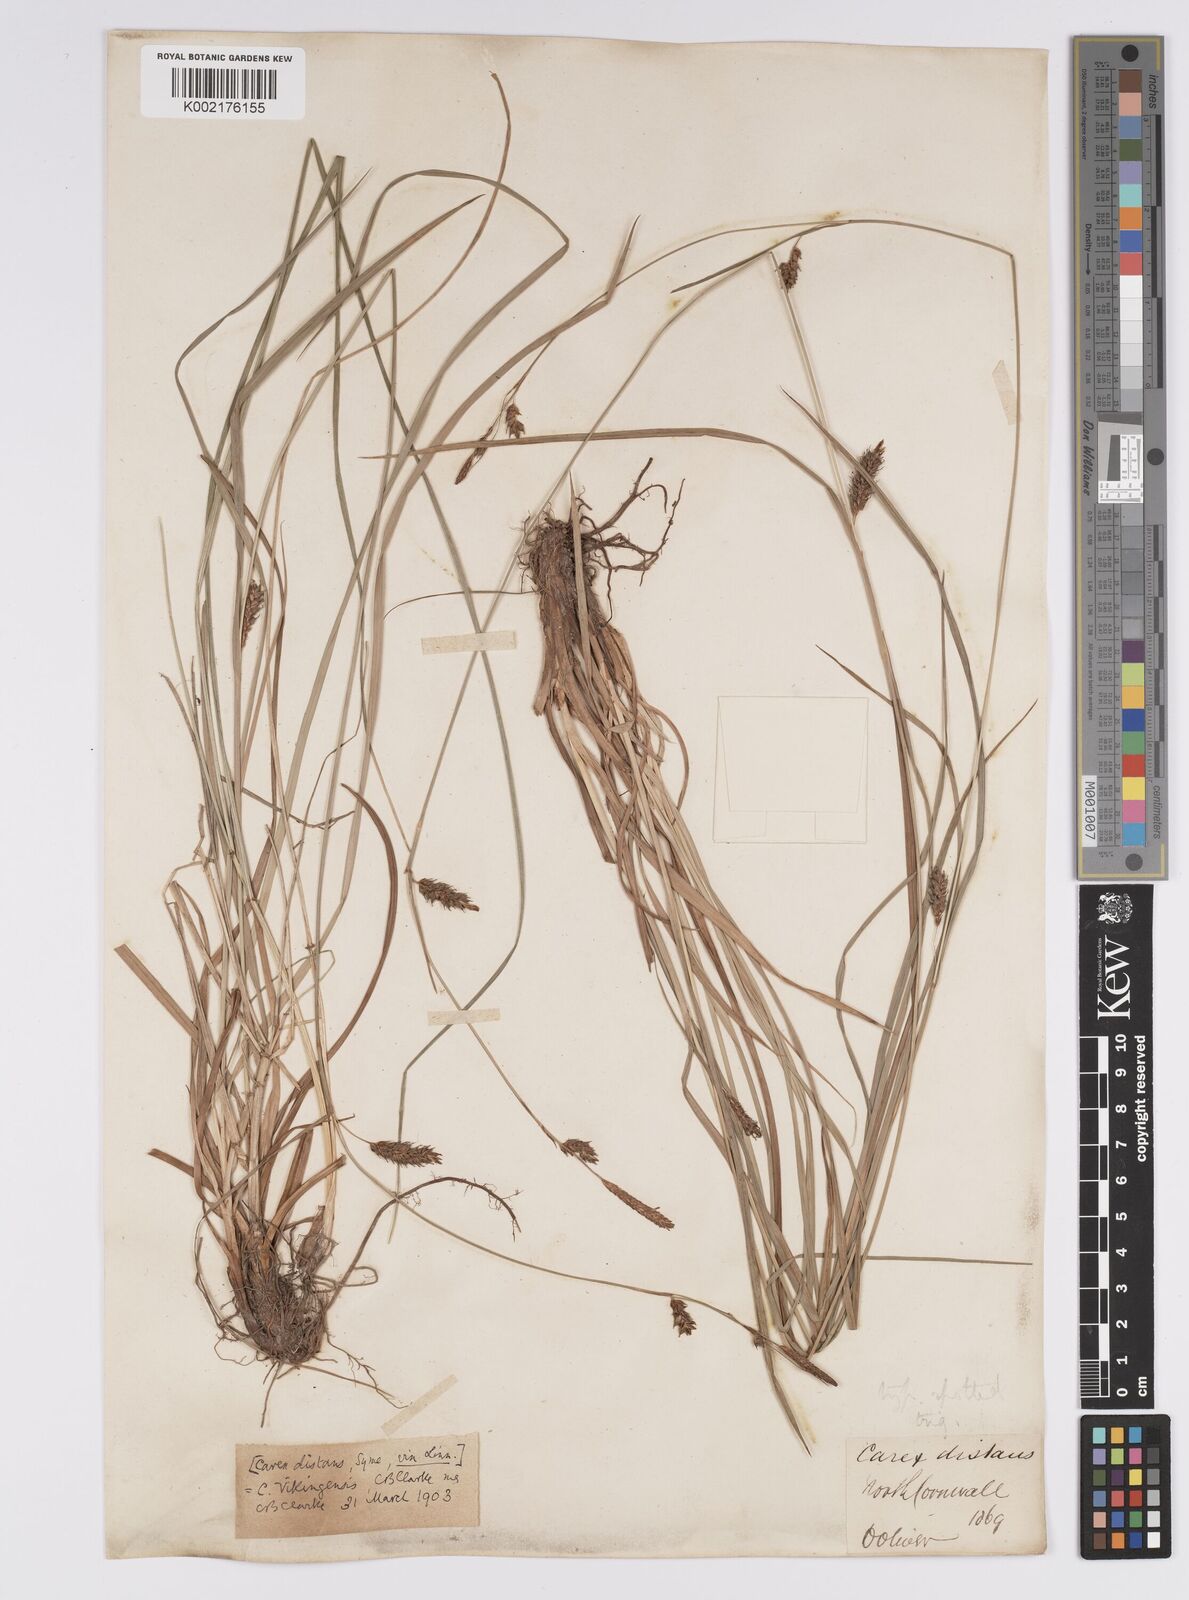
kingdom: Plantae
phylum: Tracheophyta
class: Liliopsida
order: Poales
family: Cyperaceae
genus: Carex
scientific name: Carex distans
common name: Distant sedge
